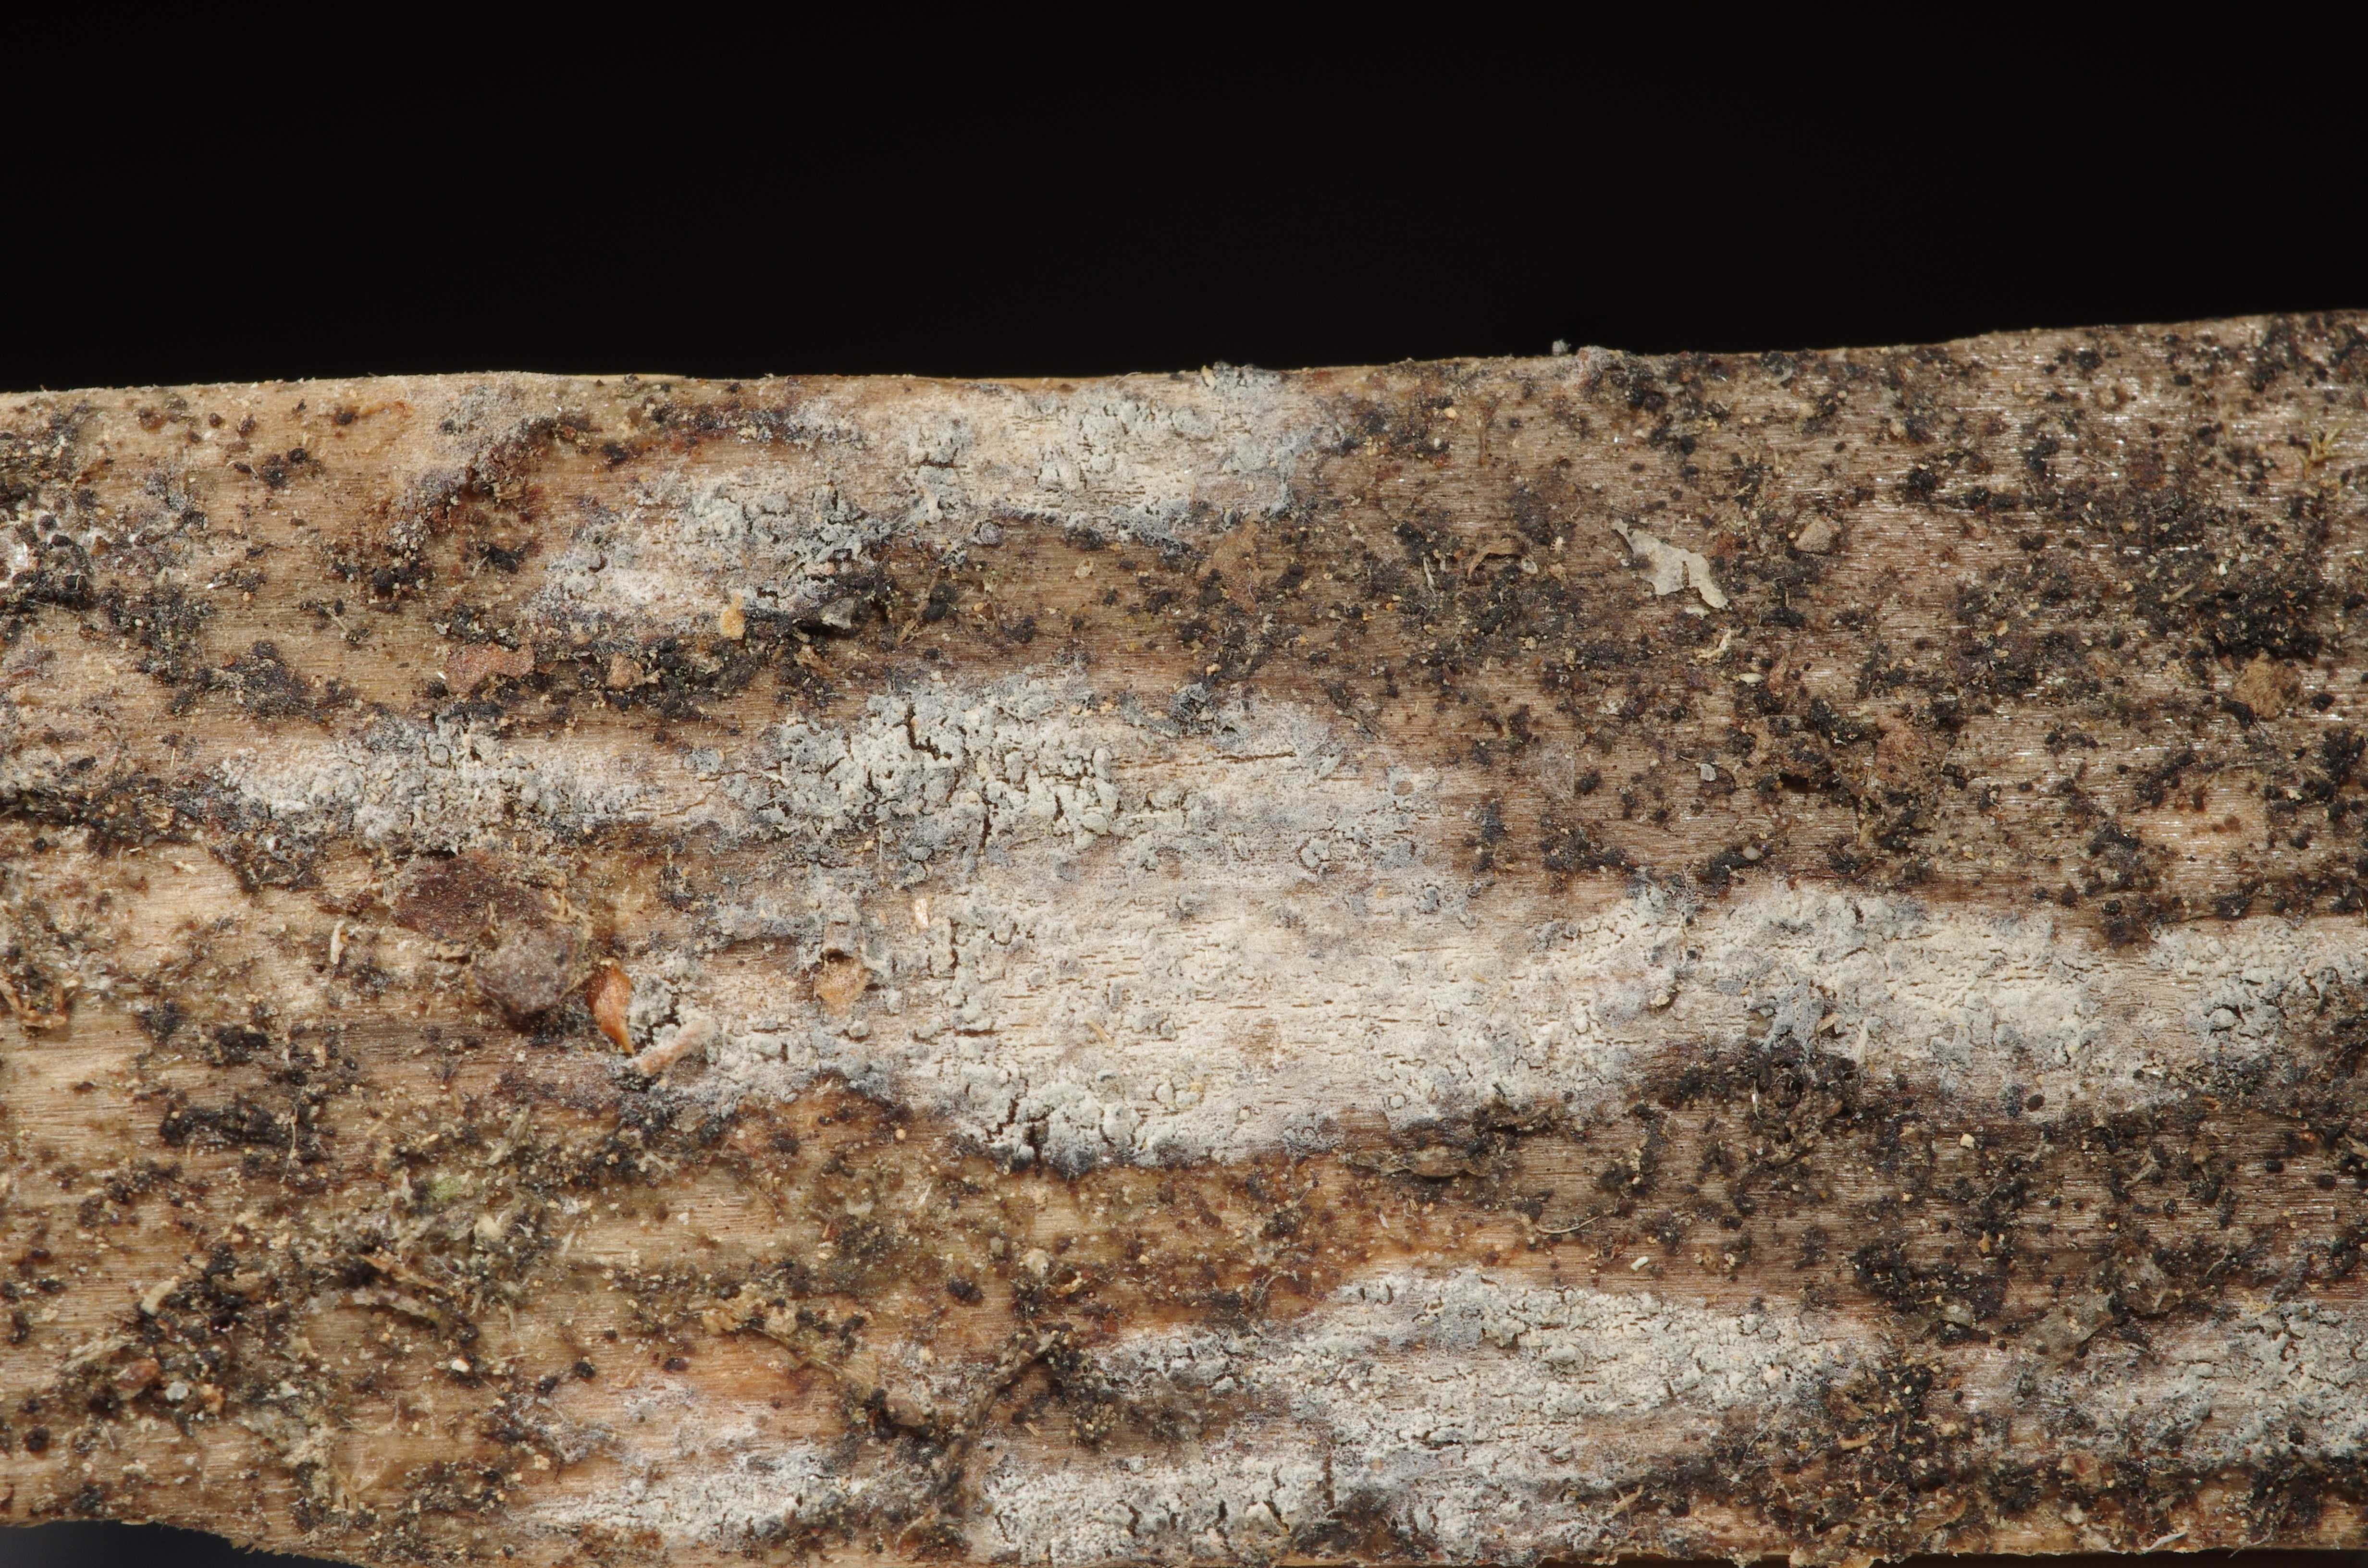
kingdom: Fungi
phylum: Basidiomycota
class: Agaricomycetes
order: Russulales
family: Xenasmataceae
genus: Xenasma
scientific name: Xenasma tulasnelloideum
